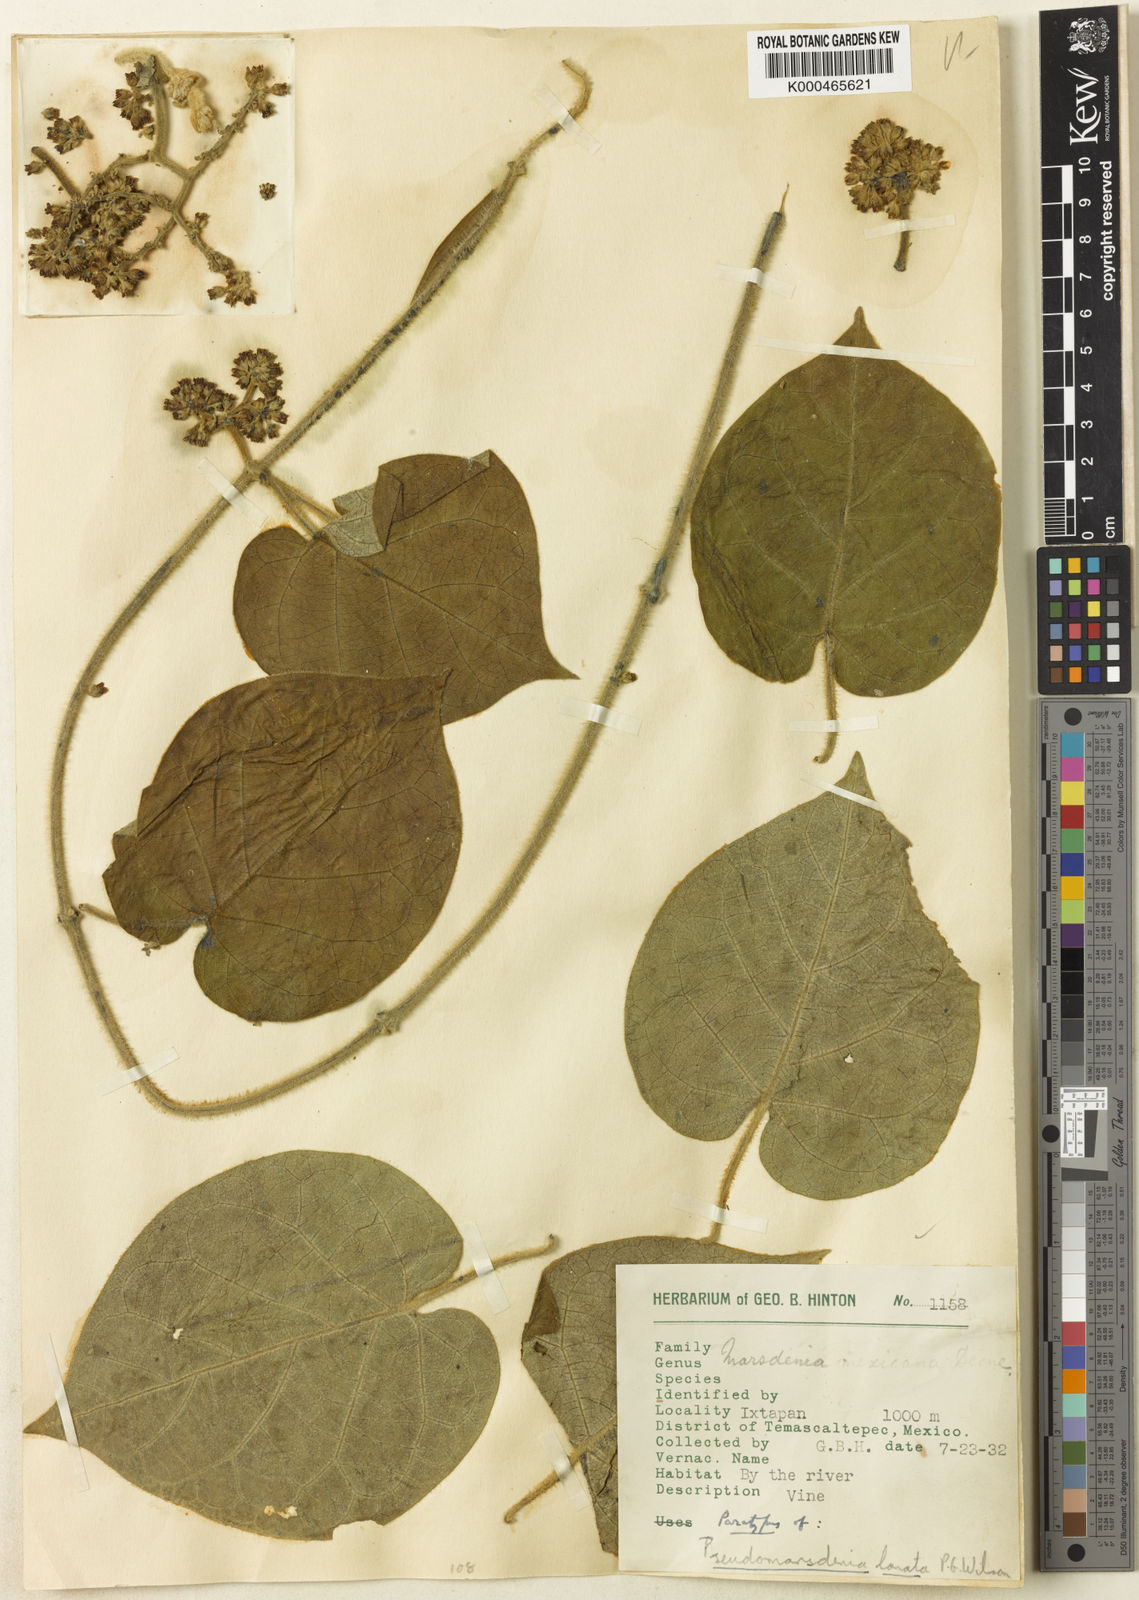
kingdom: Plantae
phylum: Tracheophyta
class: Magnoliopsida
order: Gentianales
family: Apocynaceae
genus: Ruehssia
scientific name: Ruehssia lanata
